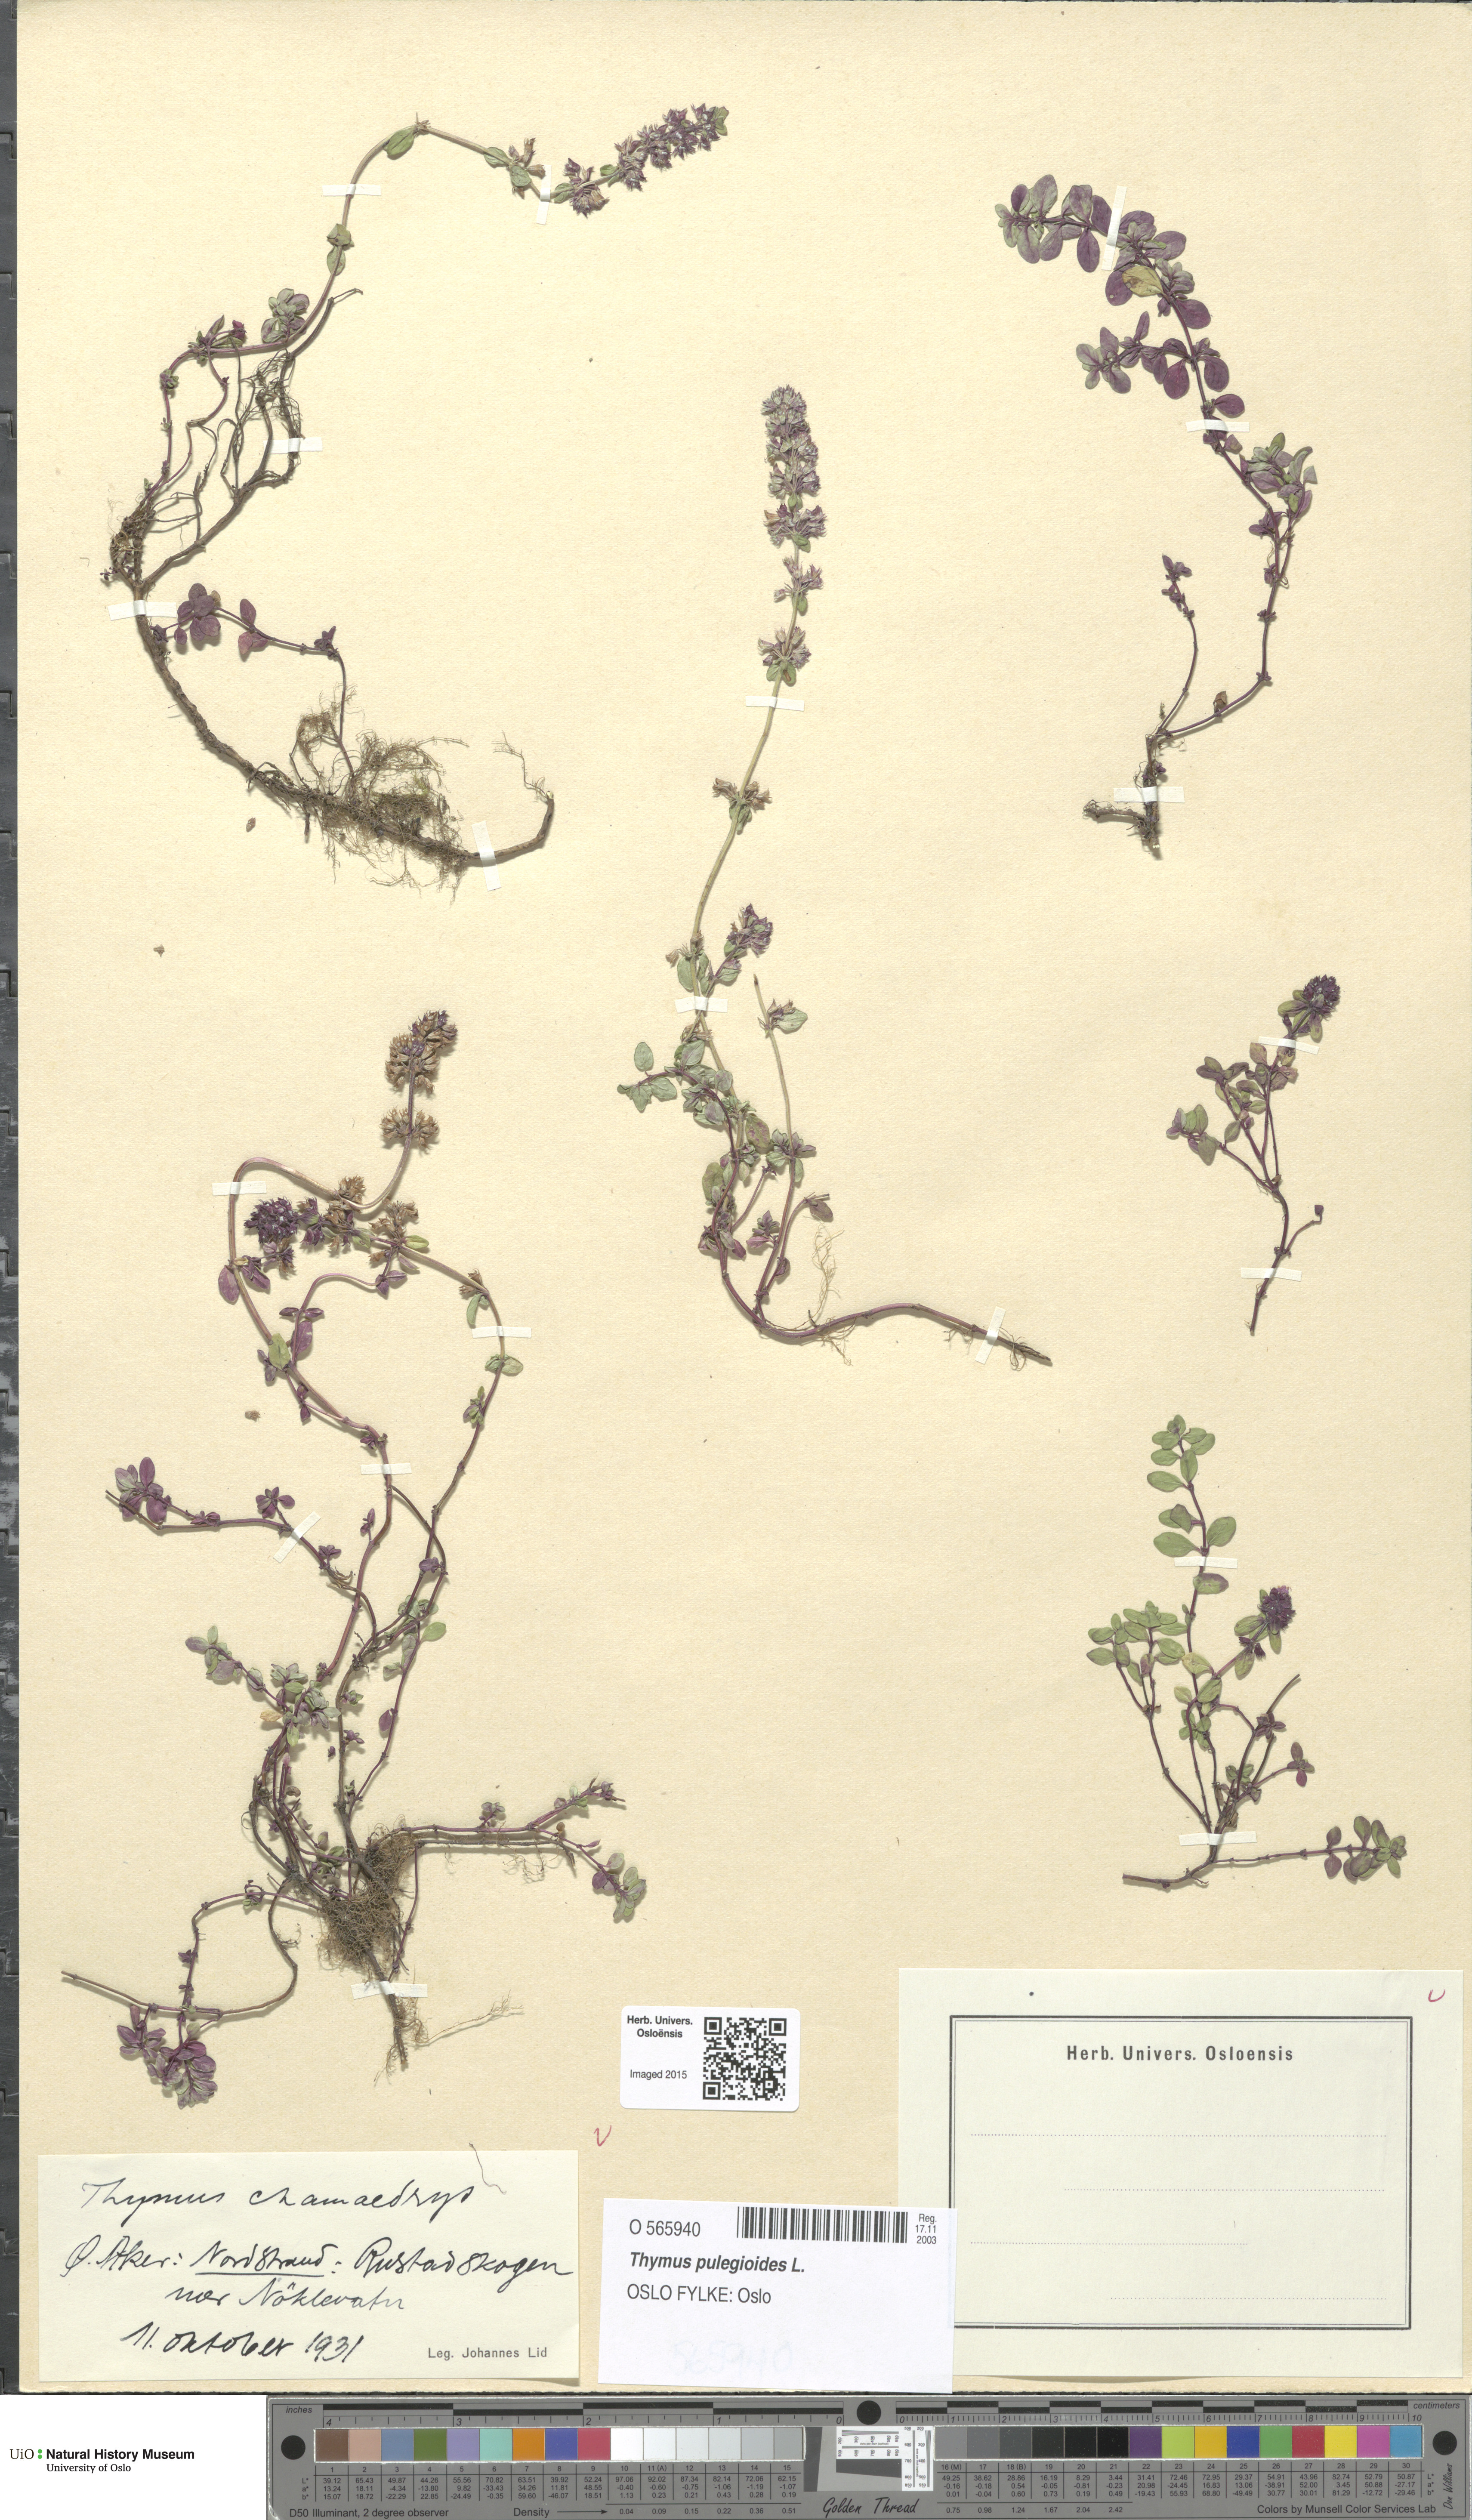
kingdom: Plantae
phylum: Tracheophyta
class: Magnoliopsida
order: Lamiales
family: Lamiaceae
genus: Thymus
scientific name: Thymus pulegioides
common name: Large thyme
